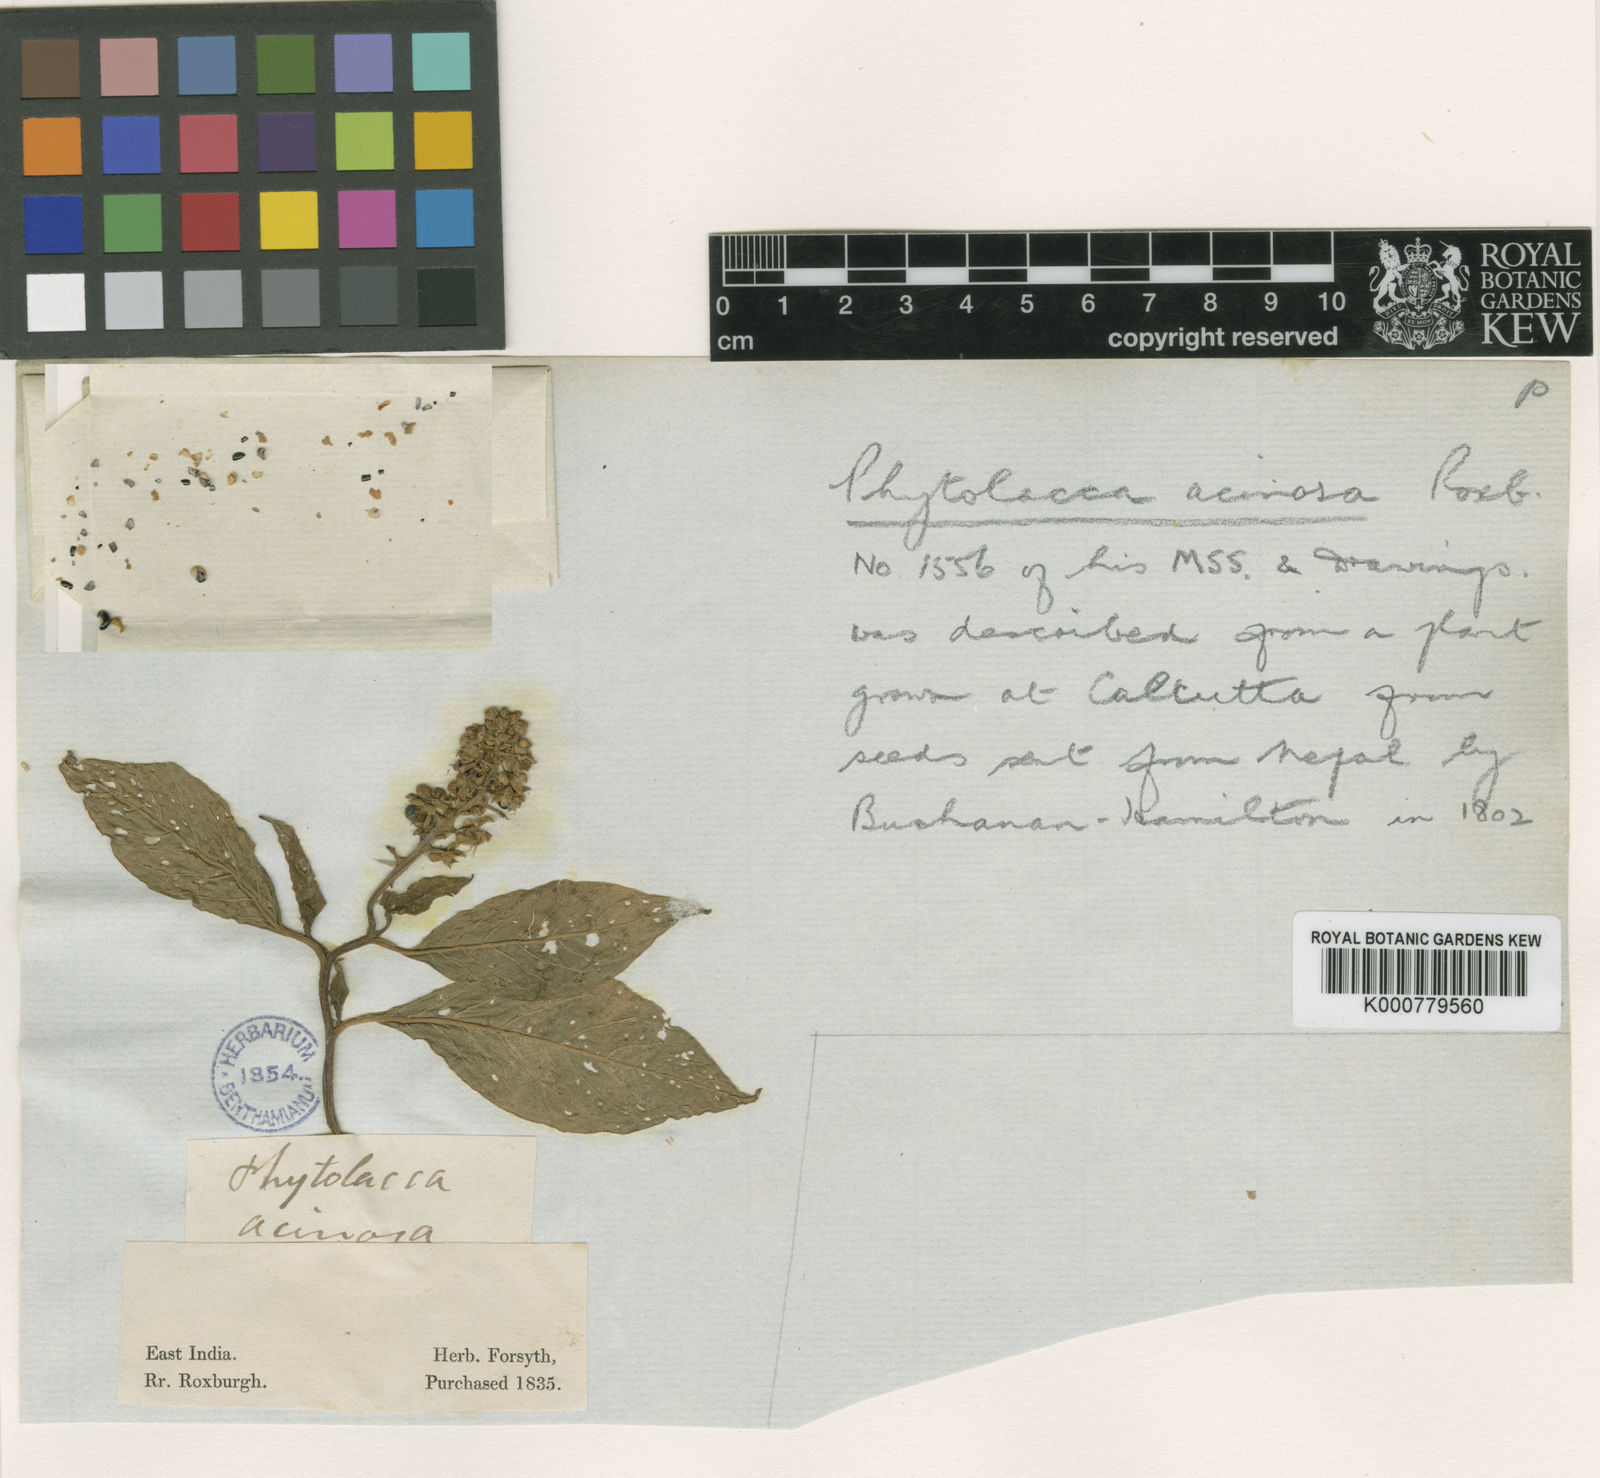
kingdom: Plantae
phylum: Tracheophyta
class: Magnoliopsida
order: Caryophyllales
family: Phytolaccaceae
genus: Phytolacca
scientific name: Phytolacca acinosa
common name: Indian pokeweed
